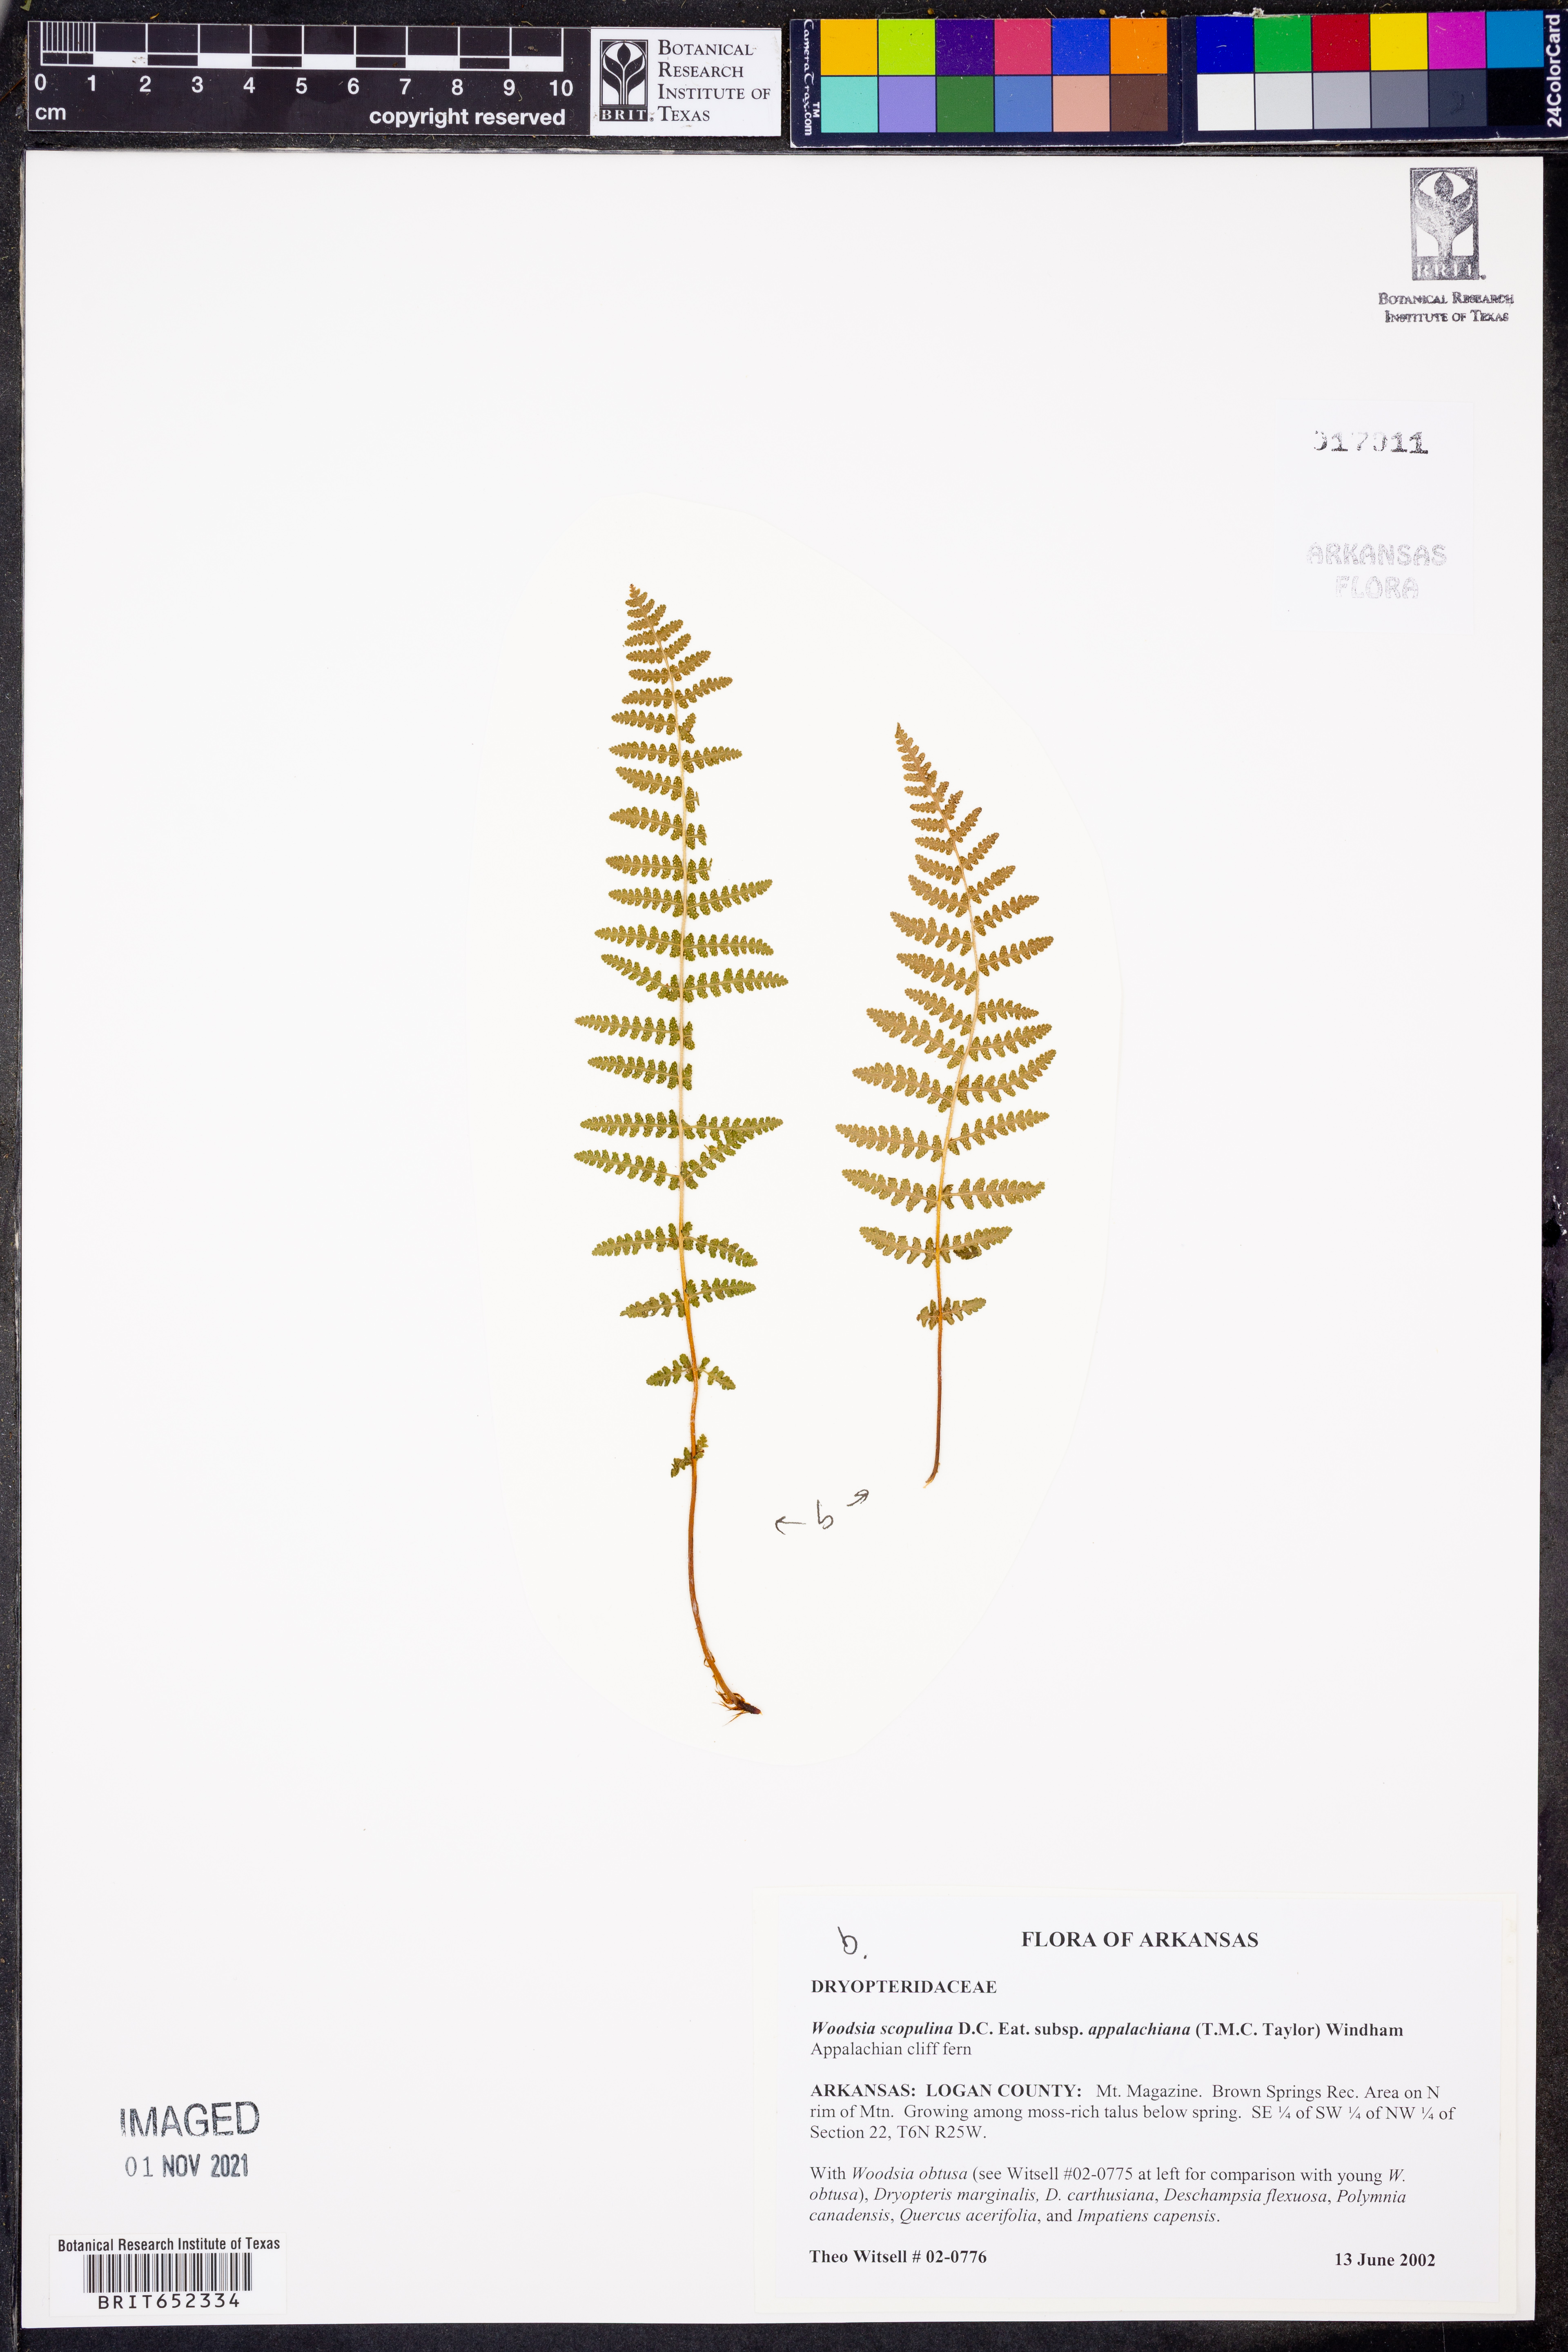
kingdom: Plantae
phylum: Tracheophyta
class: Polypodiopsida
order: Polypodiales
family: Woodsiaceae
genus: Physematium
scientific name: Physematium scopulinum
